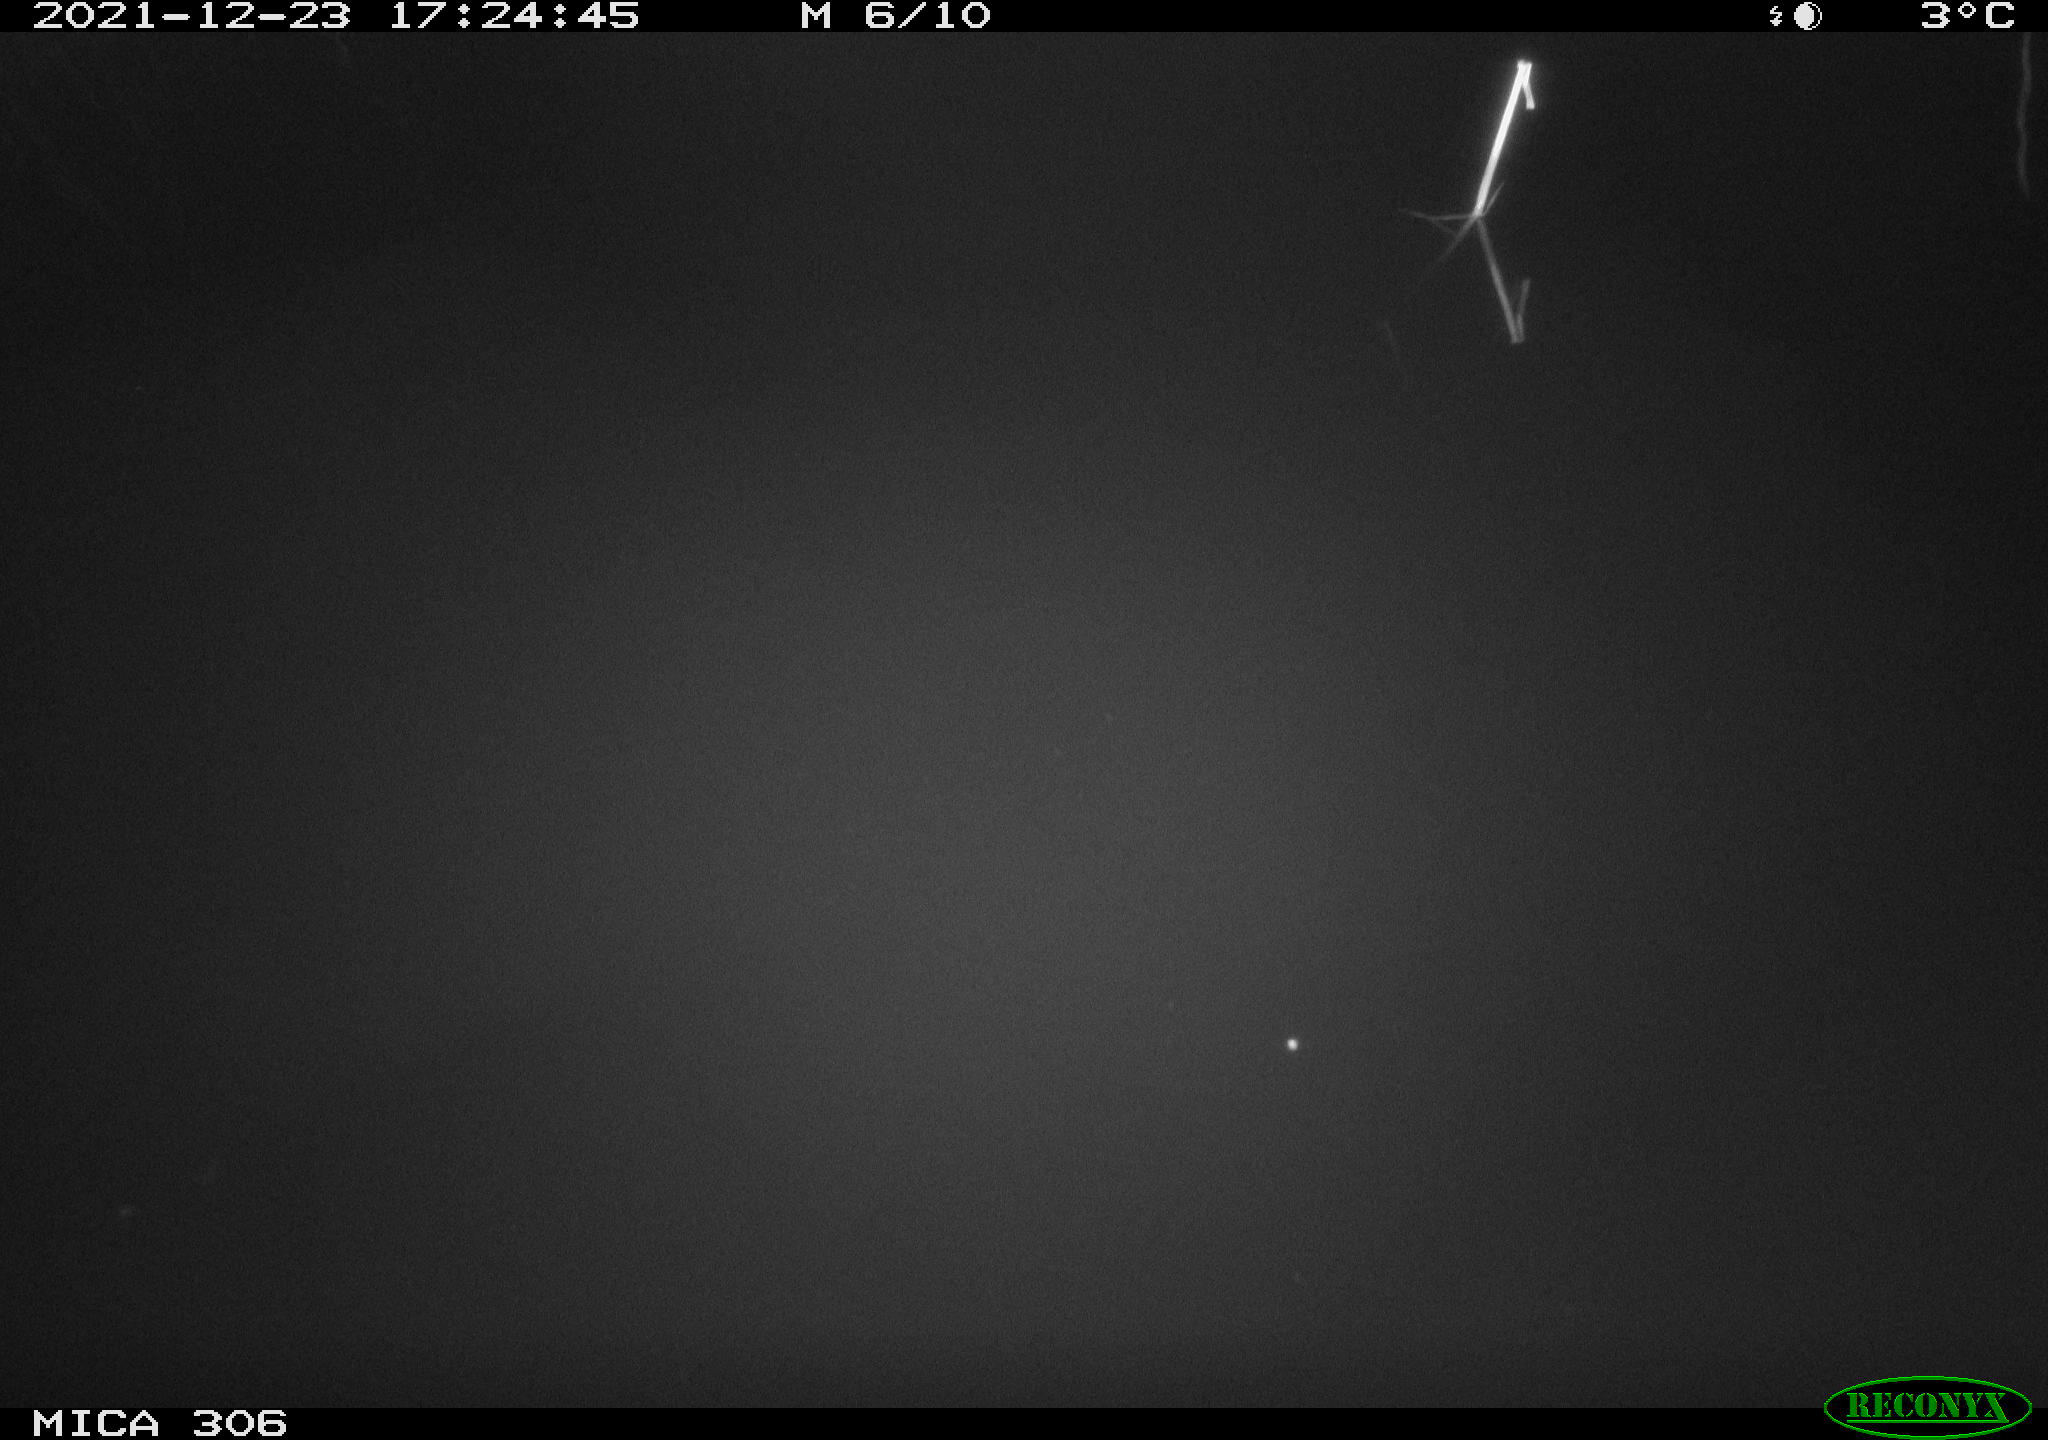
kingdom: Animalia
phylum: Chordata
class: Aves
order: Gruiformes
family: Rallidae
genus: Gallinula
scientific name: Gallinula chloropus
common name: Common moorhen
